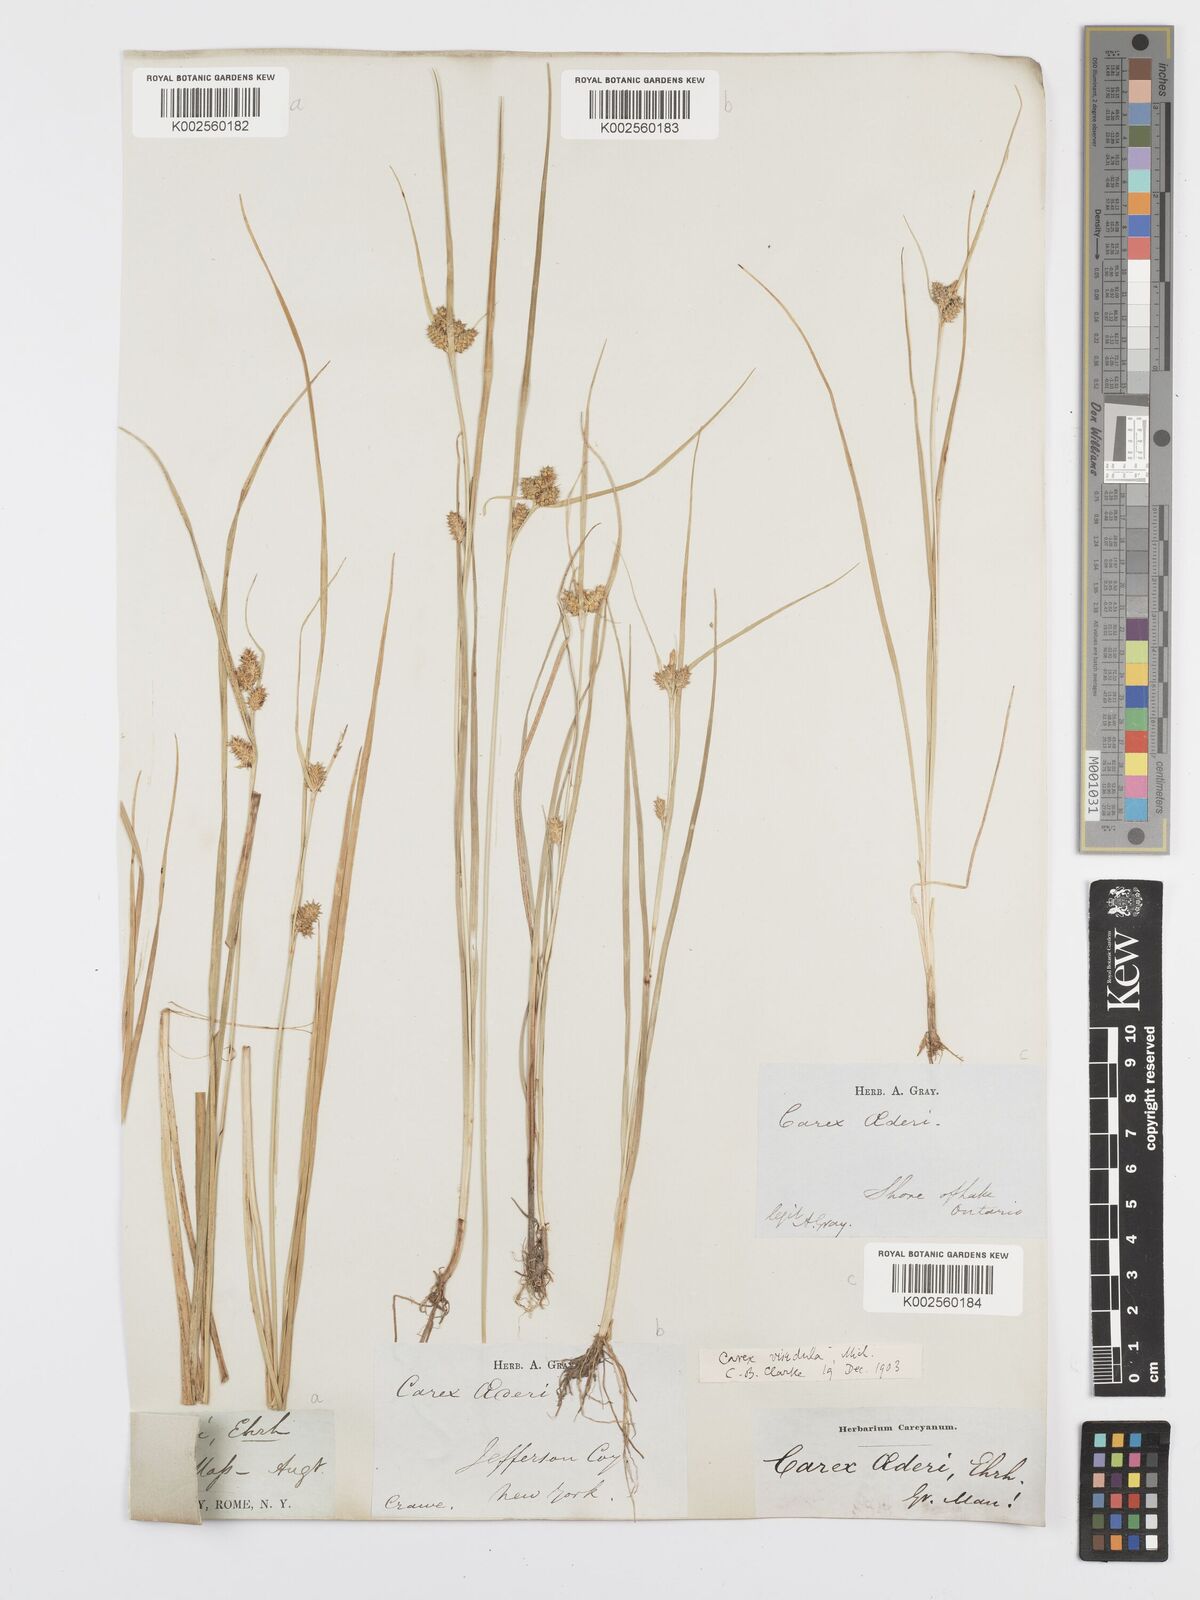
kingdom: Plantae
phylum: Tracheophyta
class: Liliopsida
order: Poales
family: Cyperaceae
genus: Carex
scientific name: Carex oederi
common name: Common & small-fruited yellow-sedge
